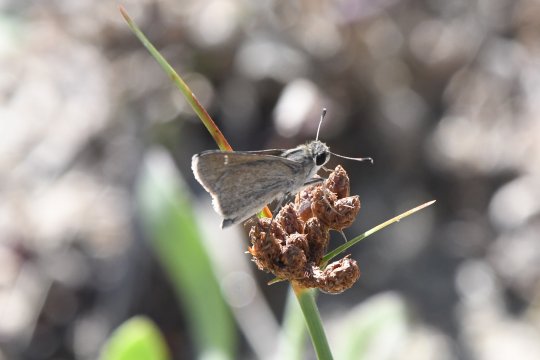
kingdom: Animalia
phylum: Arthropoda
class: Insecta
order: Lepidoptera
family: Hesperiidae
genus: Lerodea
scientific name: Lerodea eufala
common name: Eufala Skipper
